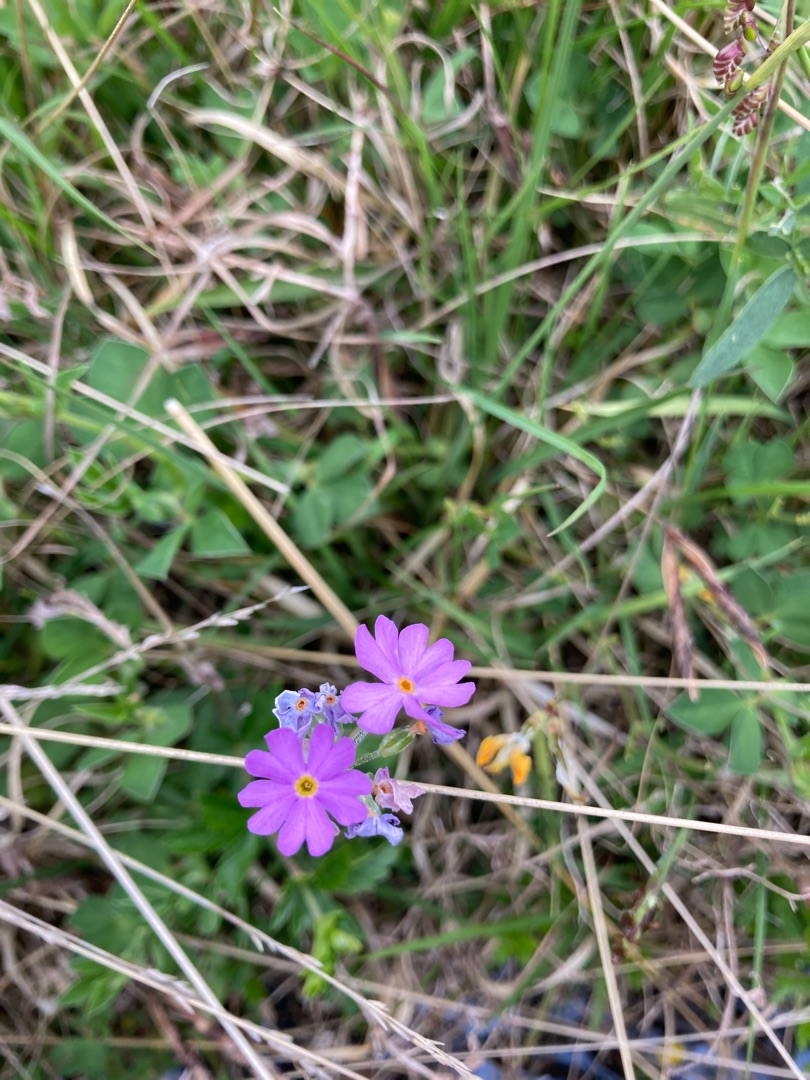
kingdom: Plantae
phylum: Tracheophyta
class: Magnoliopsida
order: Ericales
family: Primulaceae
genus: Primula
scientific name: Primula farinosa
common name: Melet kodriver
